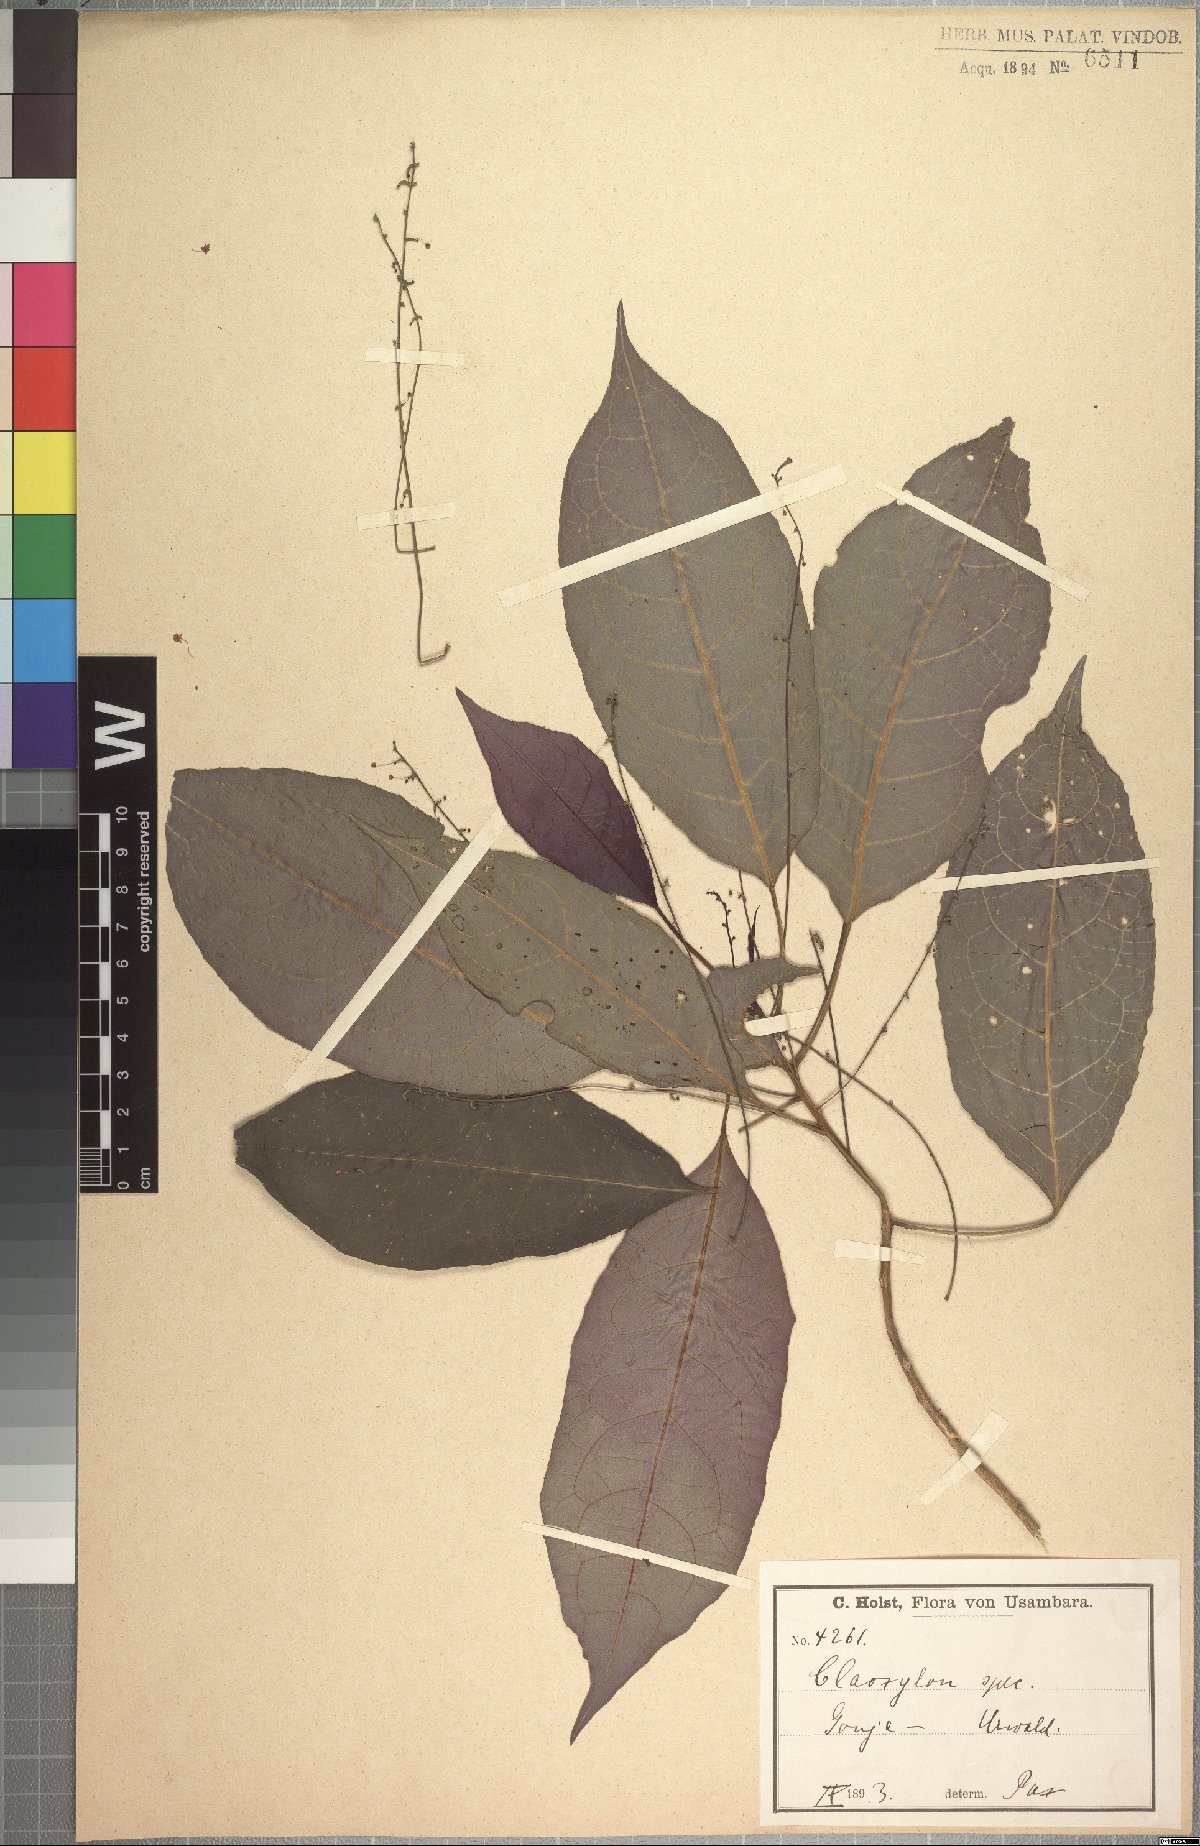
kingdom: Plantae
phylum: Tracheophyta
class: Magnoliopsida
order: Malpighiales
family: Euphorbiaceae
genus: Micrococca
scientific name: Micrococca holstii
